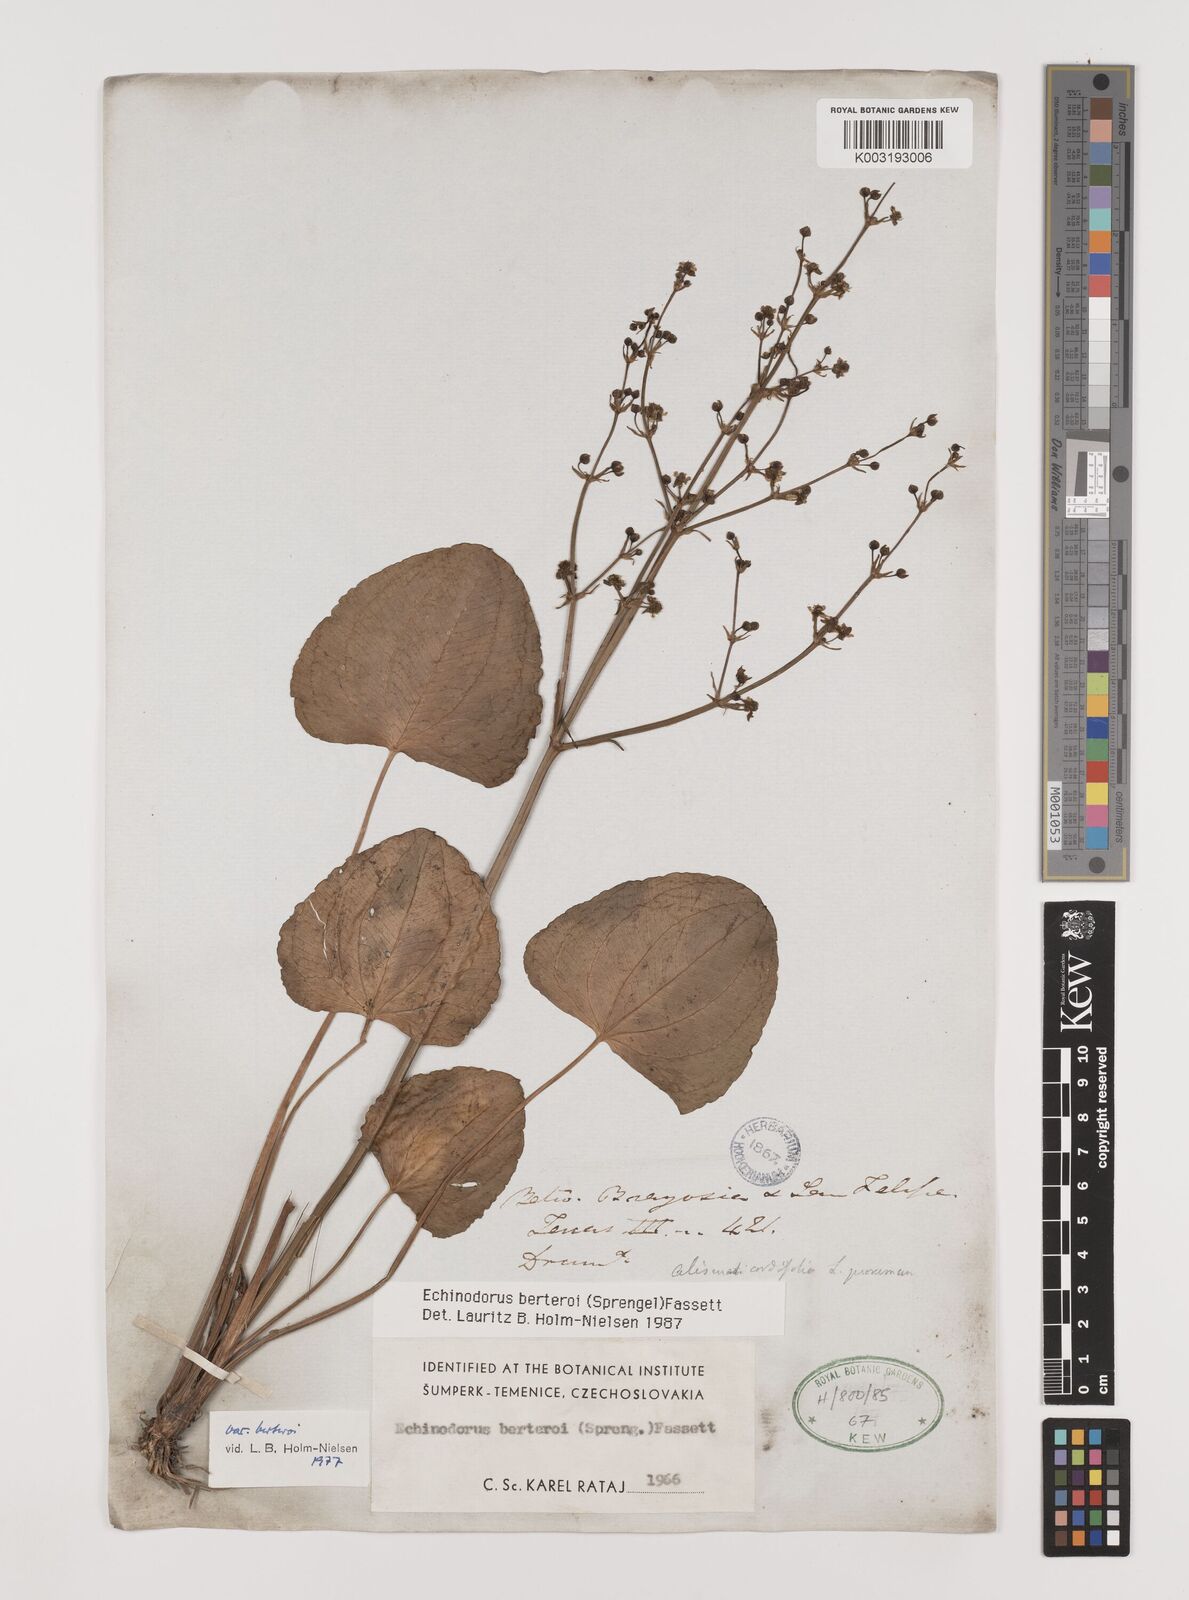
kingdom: Plantae
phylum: Tracheophyta
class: Liliopsida
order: Alismatales
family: Alismataceae
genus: Echinodorus
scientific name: Echinodorus berteroi
